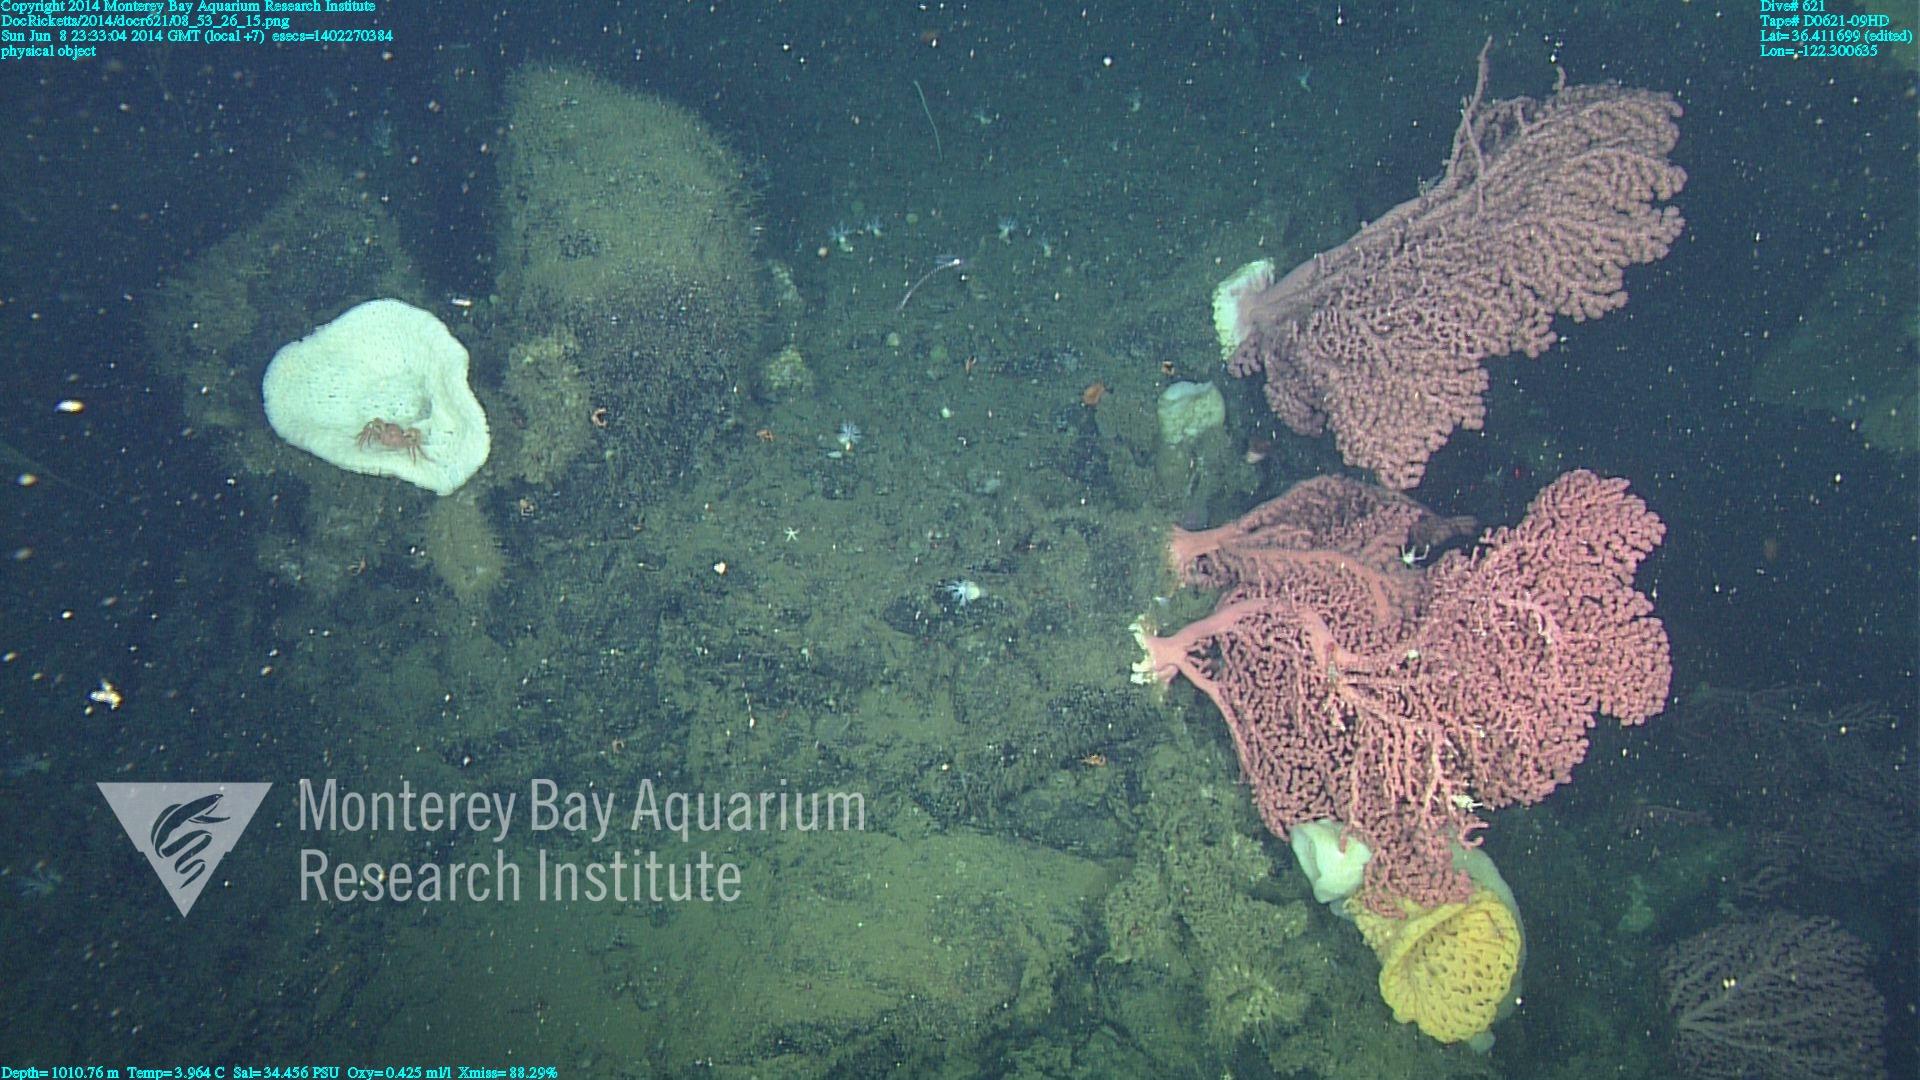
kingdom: Animalia
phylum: Cnidaria
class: Anthozoa
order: Scleralcyonacea
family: Coralliidae
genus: Paragorgia
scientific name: Paragorgia arborea
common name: Bubble gum coral
